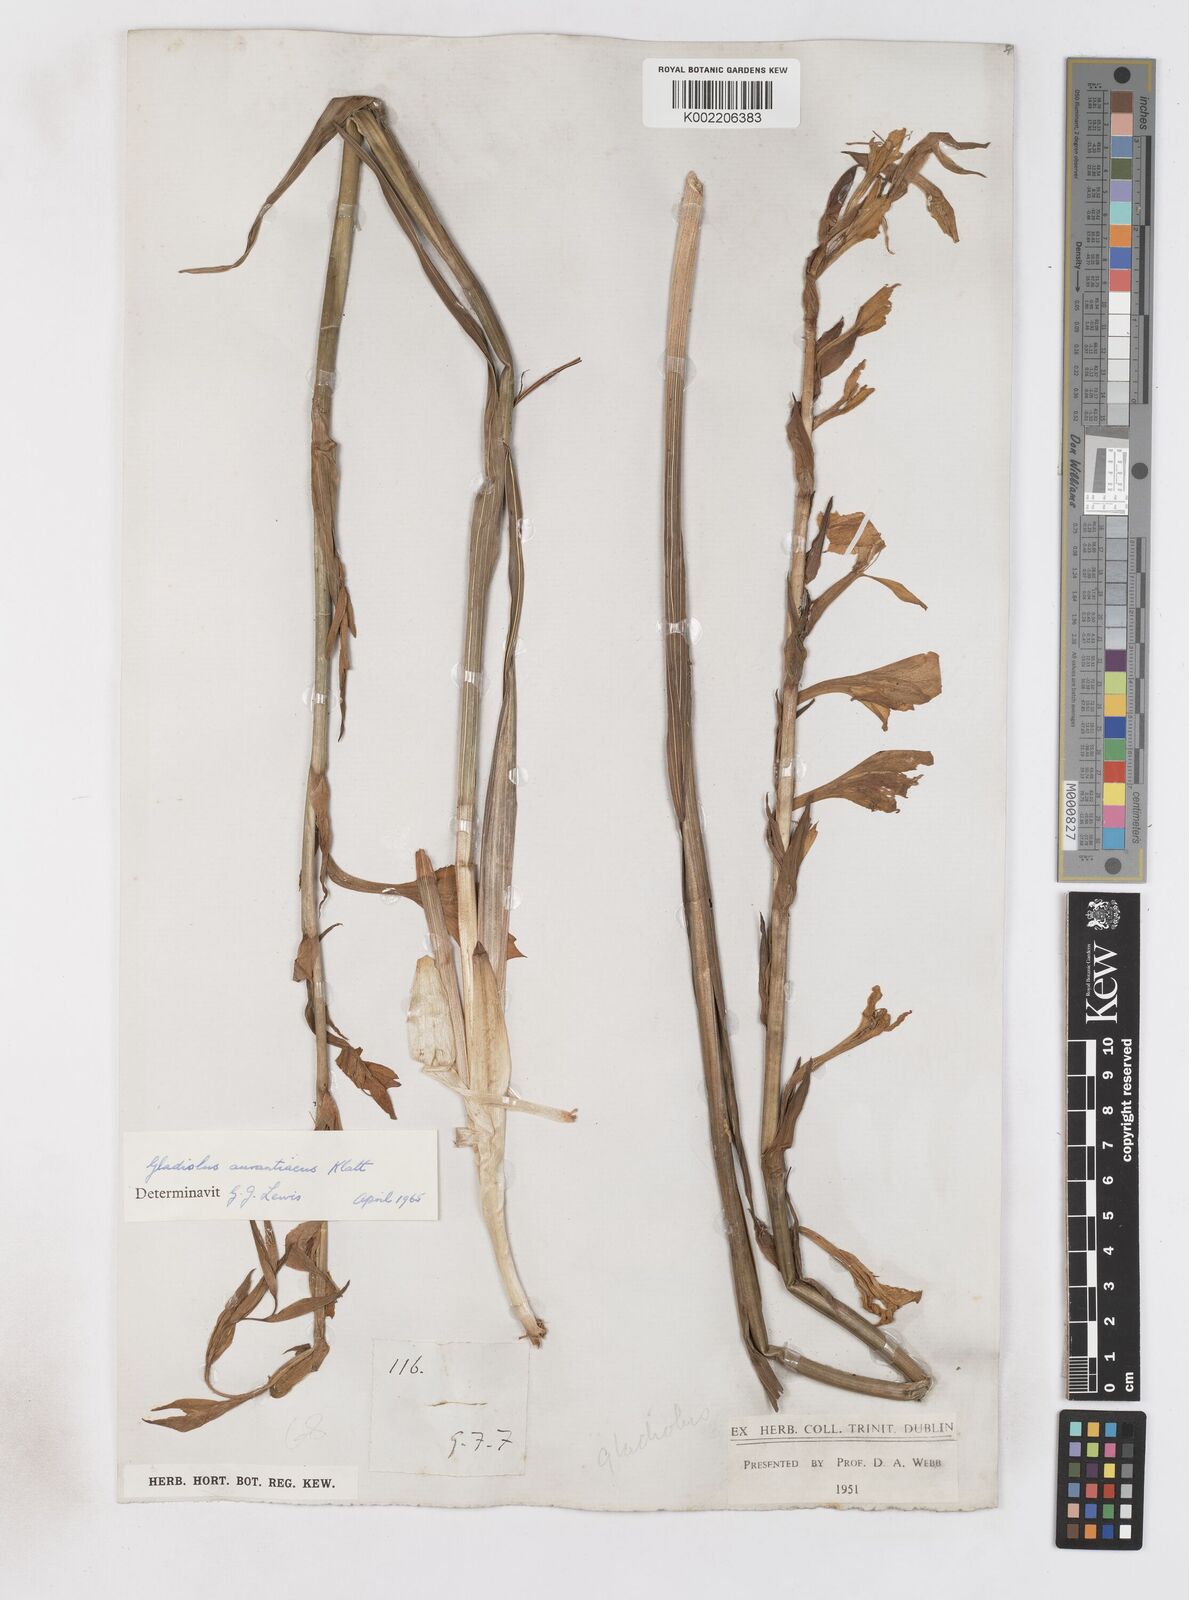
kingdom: Plantae
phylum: Tracheophyta
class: Liliopsida
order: Asparagales
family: Iridaceae
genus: Gladiolus
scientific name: Gladiolus aurantiacus
